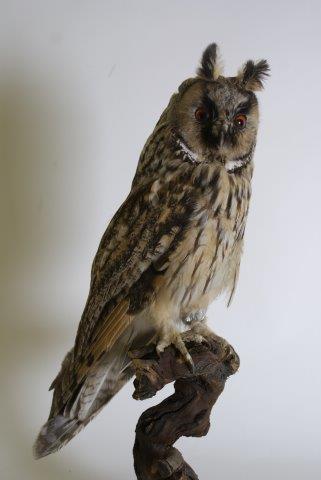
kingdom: Animalia
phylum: Chordata
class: Aves
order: Strigiformes
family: Strigidae
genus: Asio
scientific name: Asio otus
